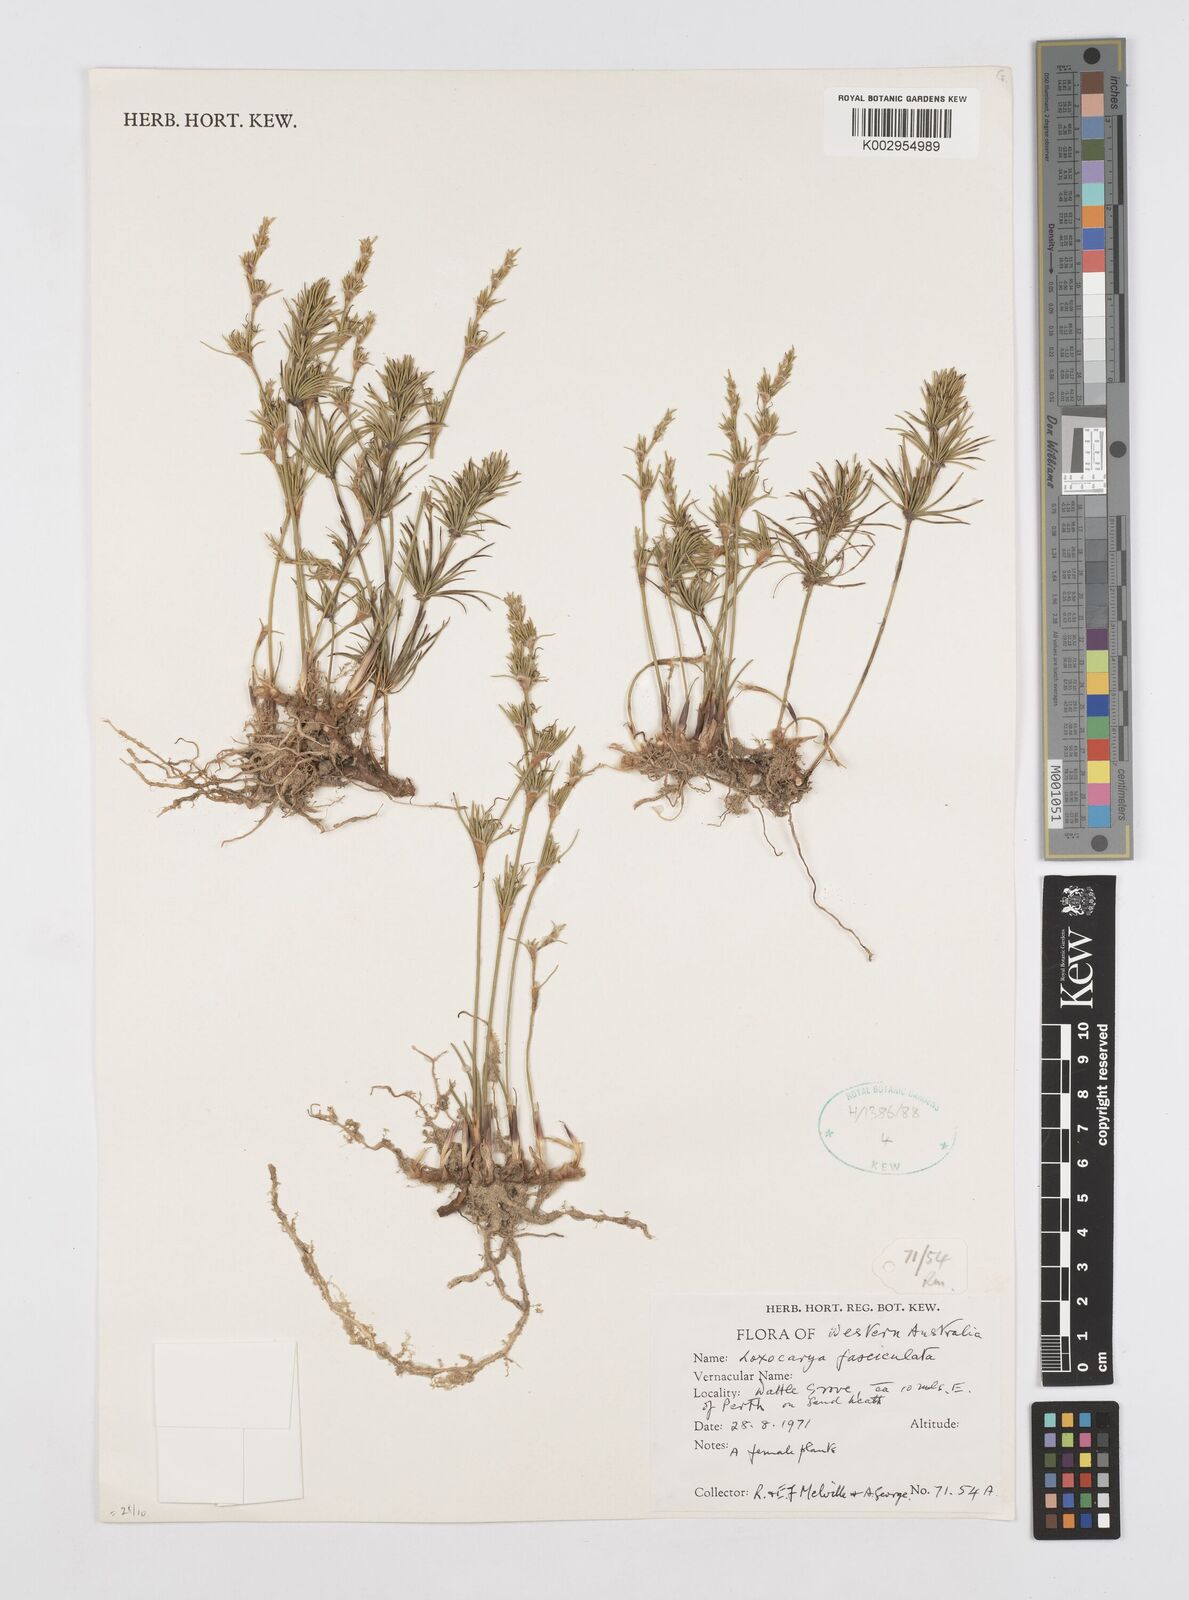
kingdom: Plantae
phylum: Tracheophyta
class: Liliopsida
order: Poales
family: Restionaceae
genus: Desmocladus
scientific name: Desmocladus fasciculatus
